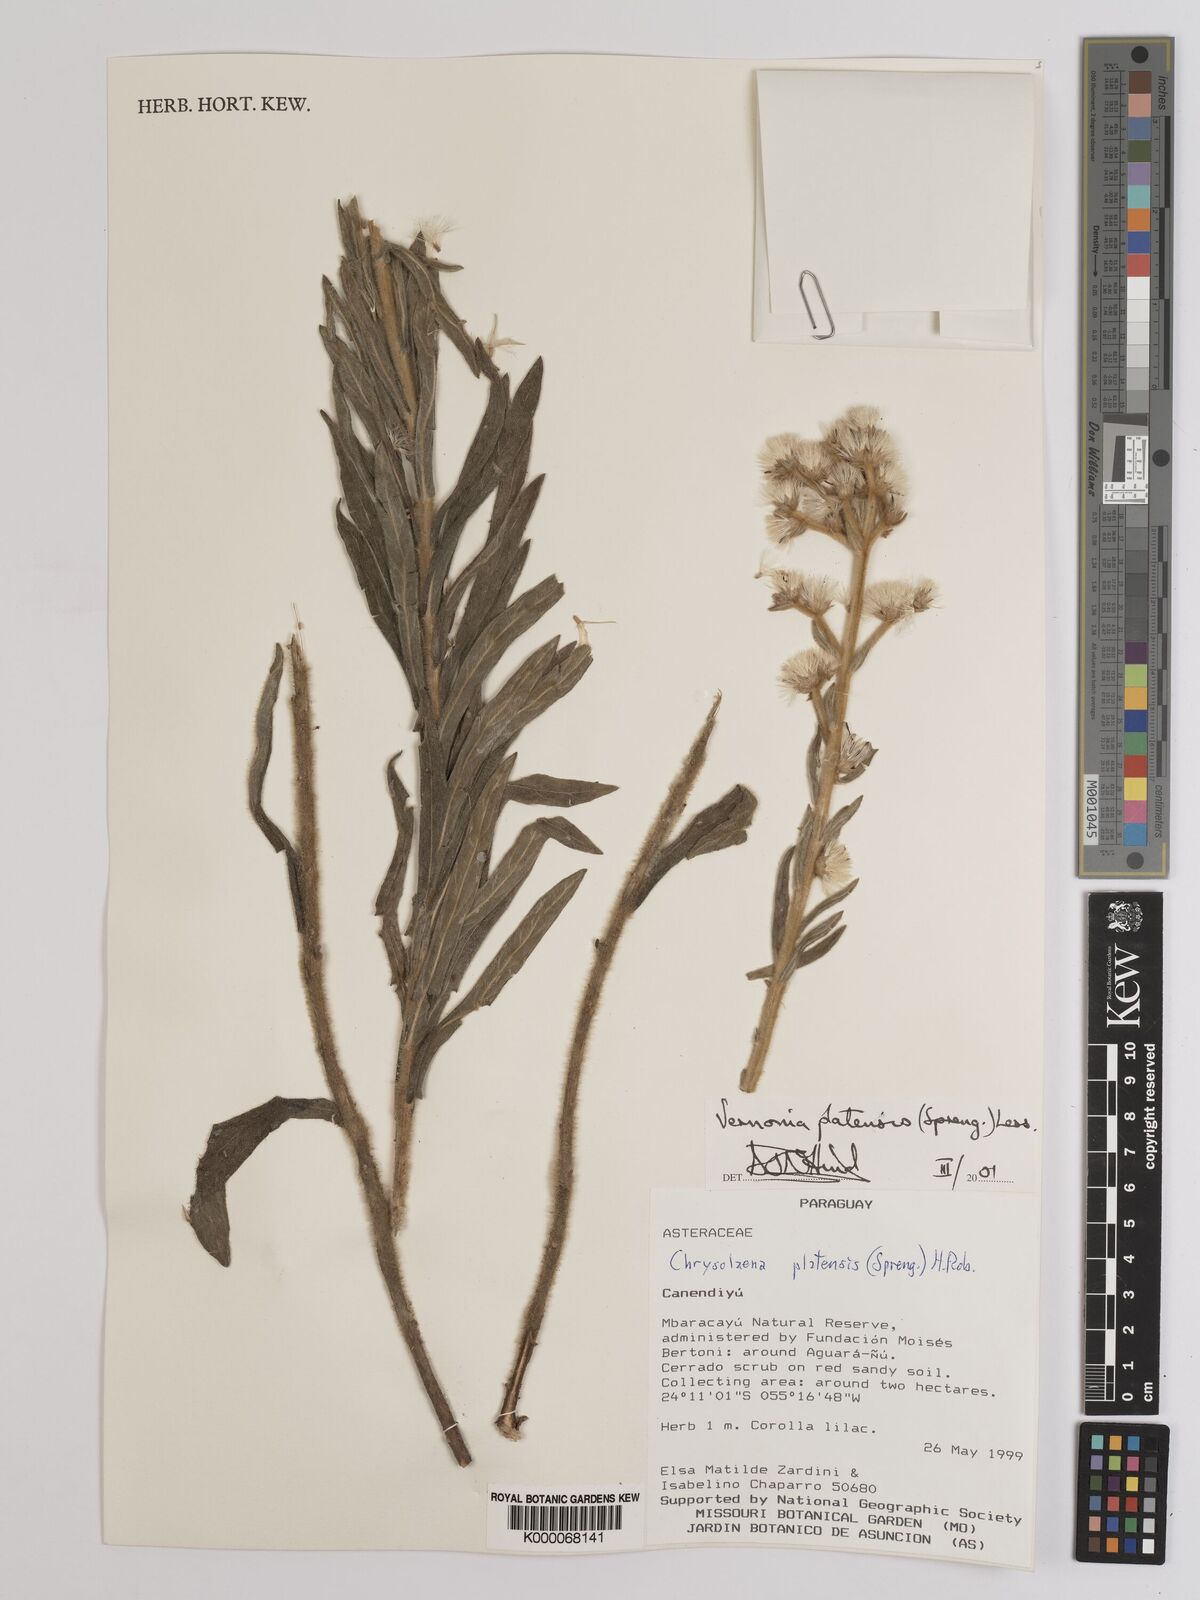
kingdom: Plantae
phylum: Tracheophyta
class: Magnoliopsida
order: Asterales
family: Asteraceae
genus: Chrysolaena
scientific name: Chrysolaena platensis
